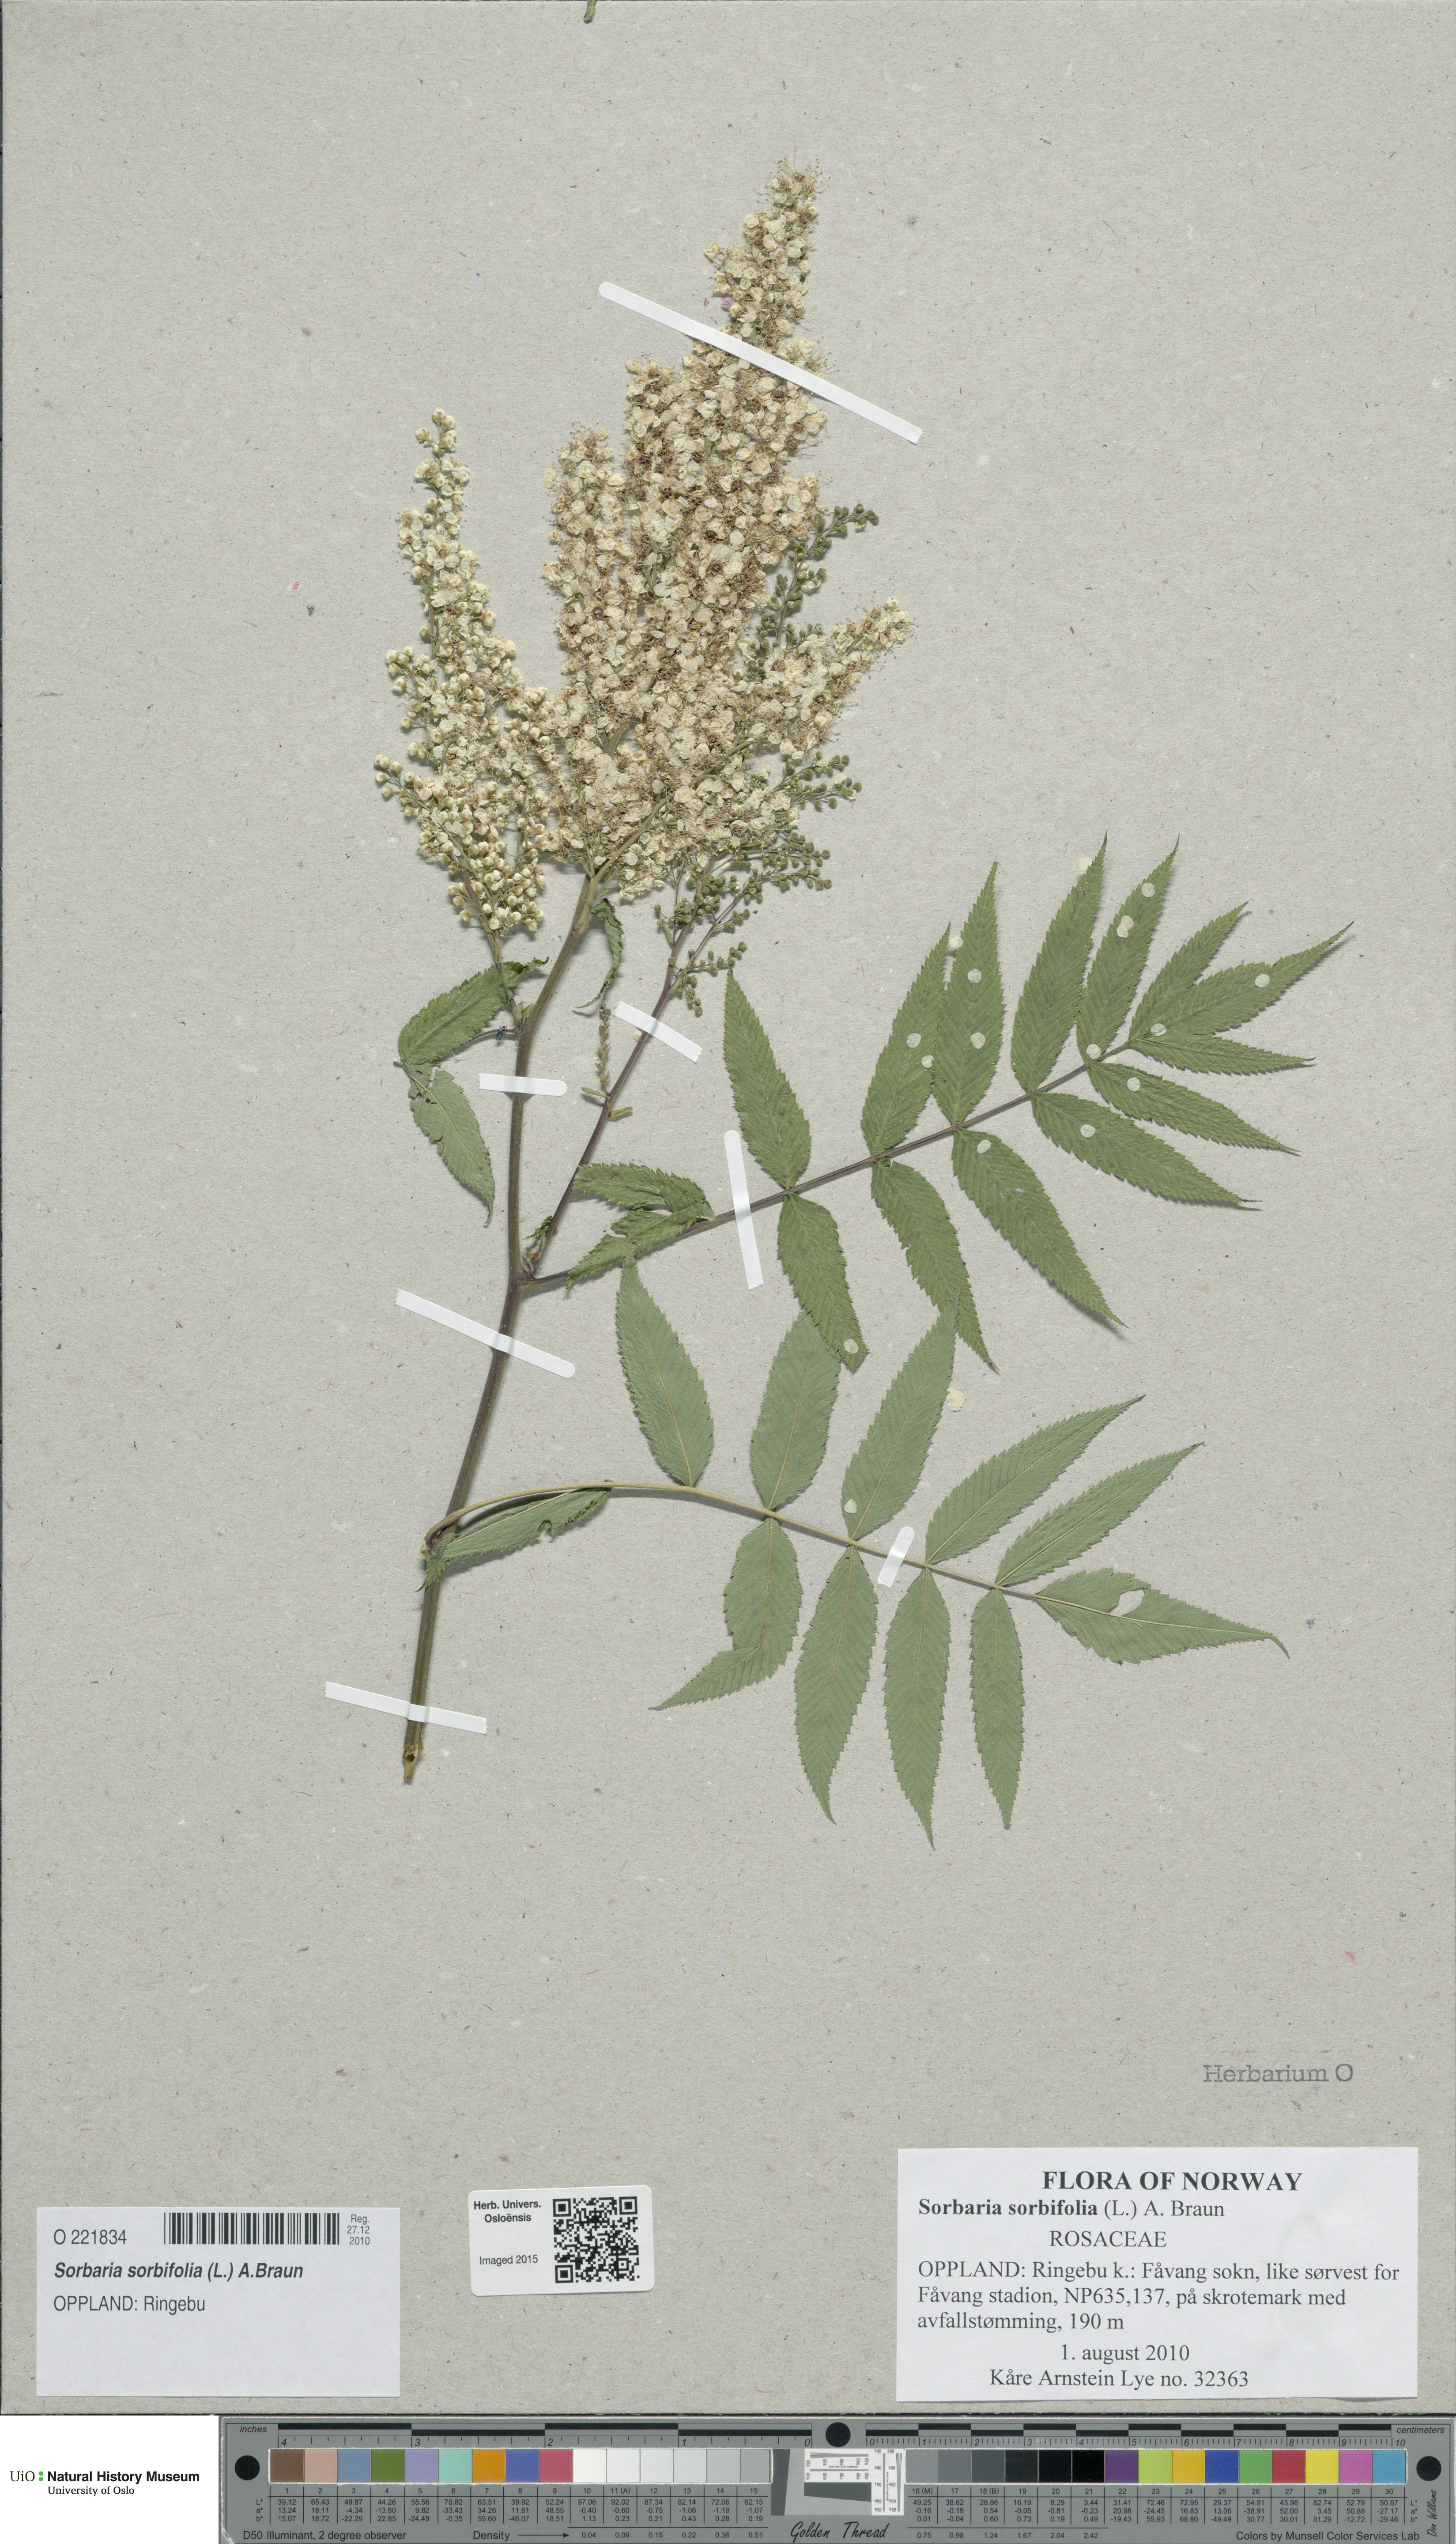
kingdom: Plantae
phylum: Tracheophyta
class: Magnoliopsida
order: Rosales
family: Rosaceae
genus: Sorbaria
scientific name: Sorbaria sorbifolia
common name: False spiraea
